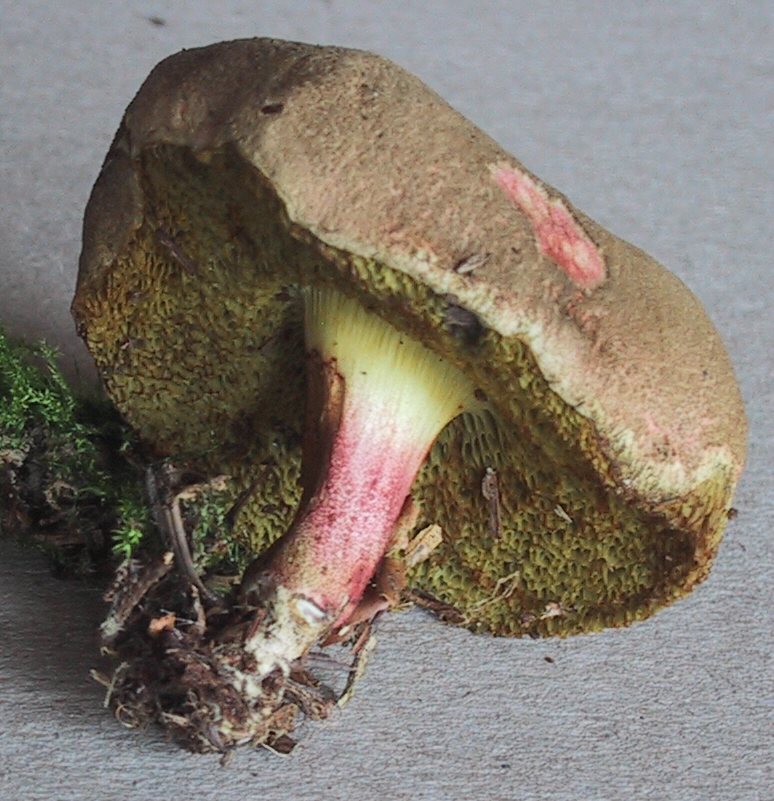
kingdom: Fungi
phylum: Basidiomycota
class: Agaricomycetes
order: Boletales
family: Boletaceae
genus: Xerocomellus
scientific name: Xerocomellus chrysenteron
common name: rødsprukken rørhat
